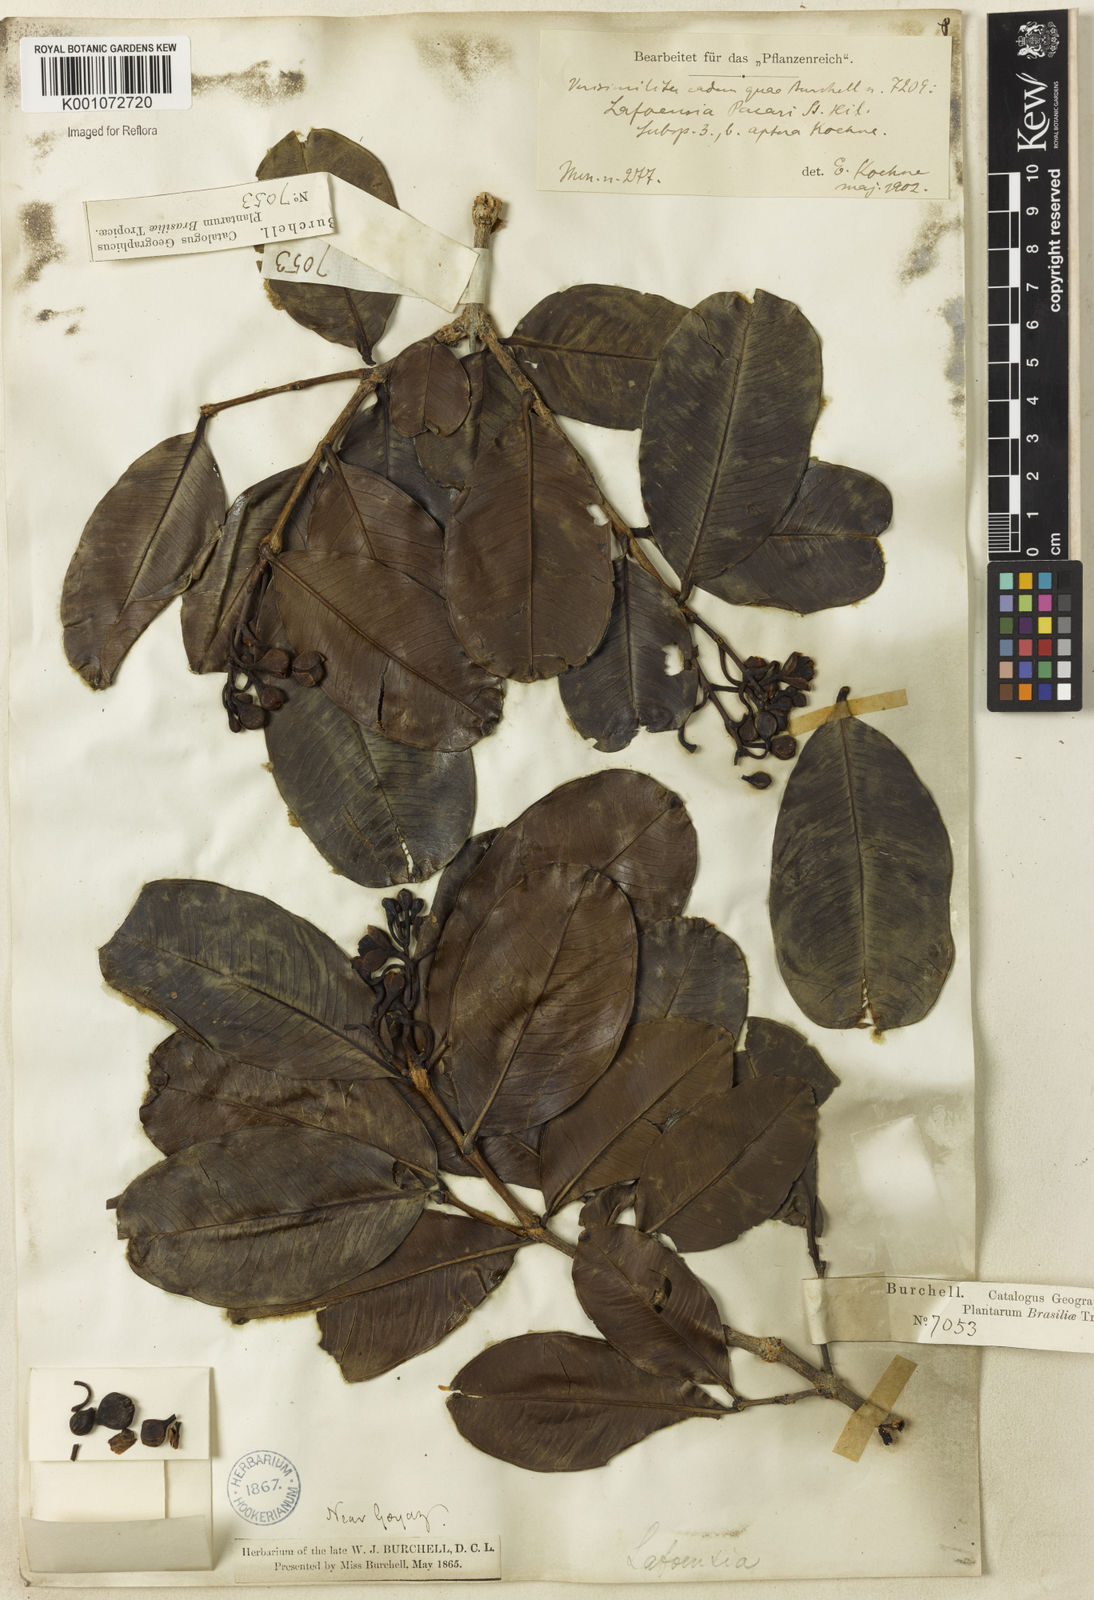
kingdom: Plantae
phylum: Tracheophyta
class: Magnoliopsida
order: Myrtales
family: Lythraceae
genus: Lafoensia
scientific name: Lafoensia pacari
